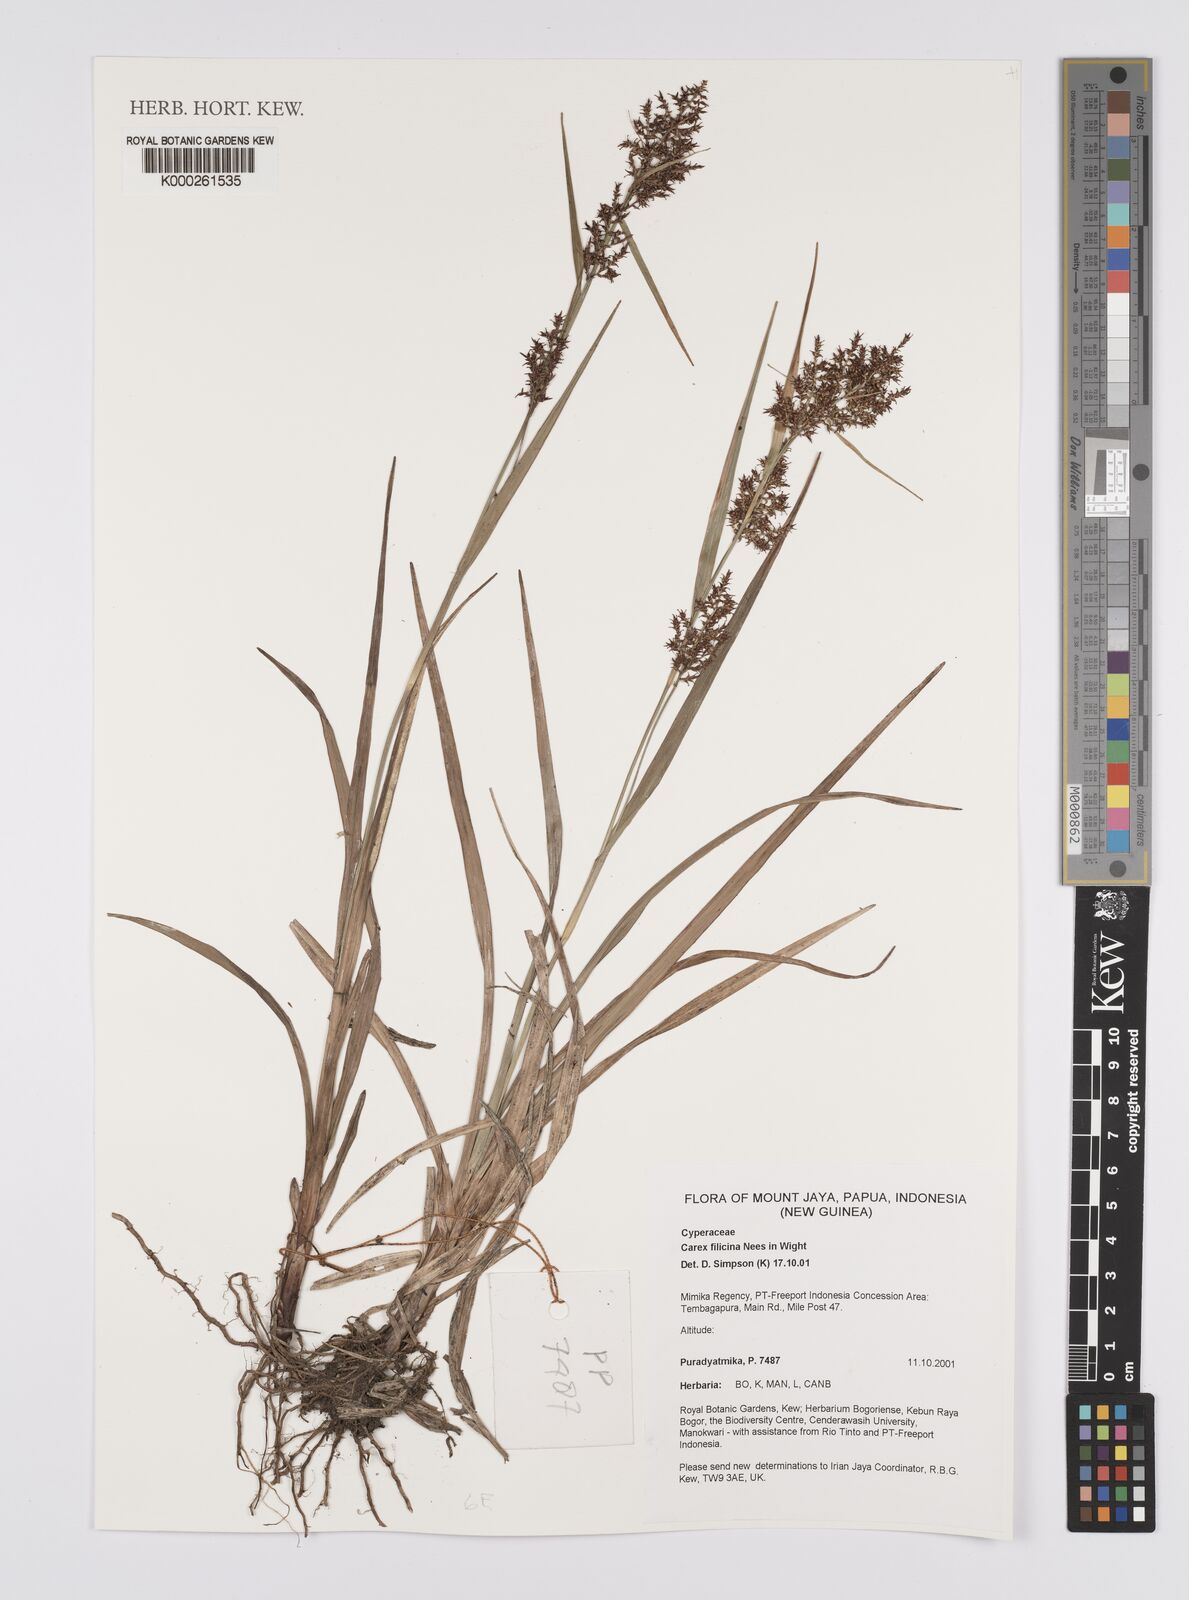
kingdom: Plantae
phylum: Tracheophyta
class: Liliopsida
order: Poales
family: Cyperaceae
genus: Carex
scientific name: Carex filicina
